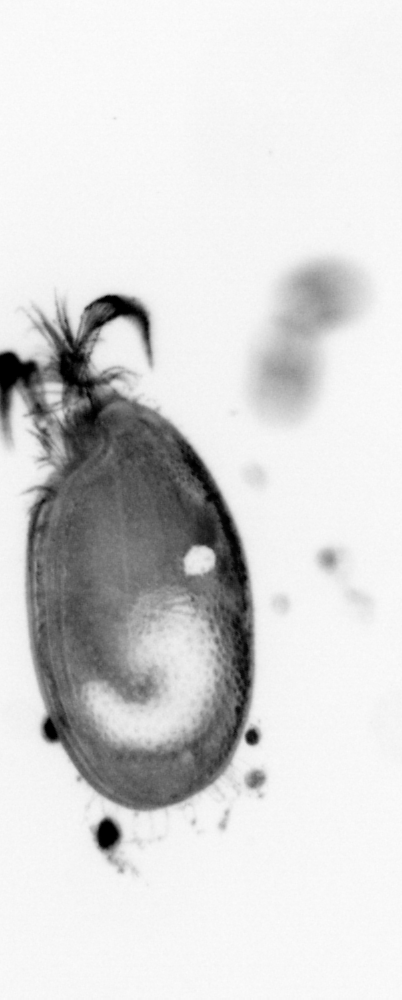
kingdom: Animalia
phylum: Annelida
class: Polychaeta
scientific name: Polychaeta
